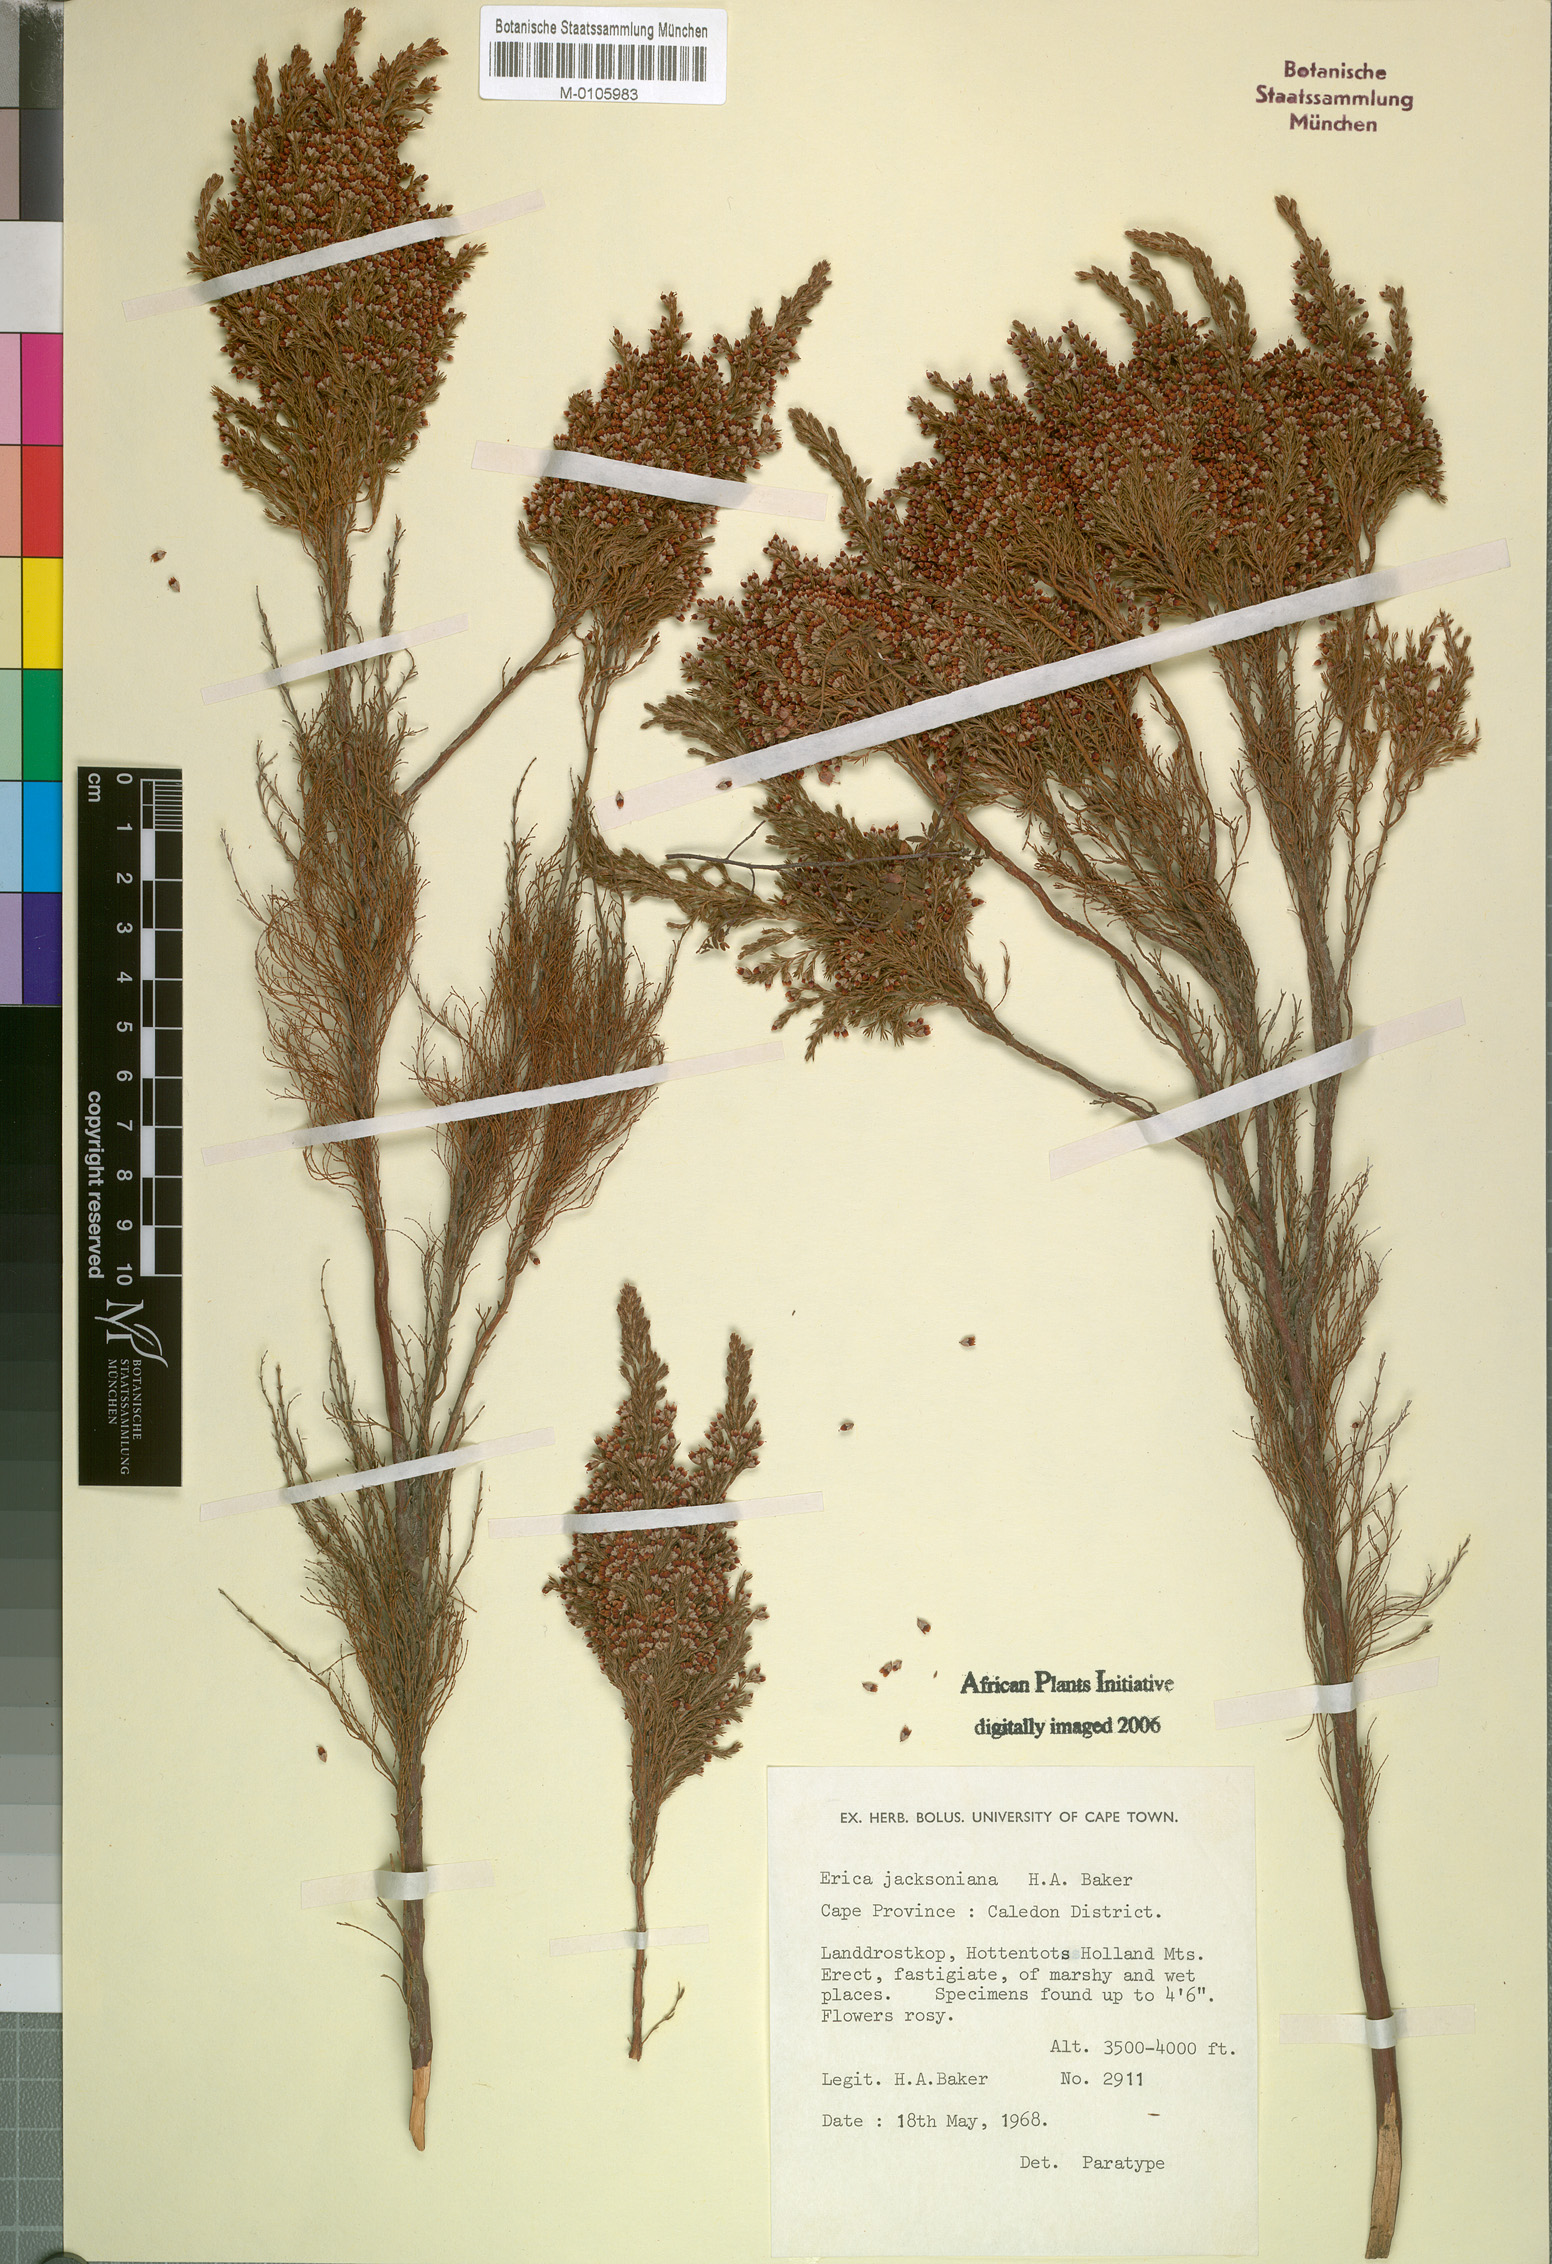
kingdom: Plantae
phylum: Tracheophyta
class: Magnoliopsida
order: Ericales
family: Ericaceae
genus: Erica
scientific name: Erica jacksoniana
